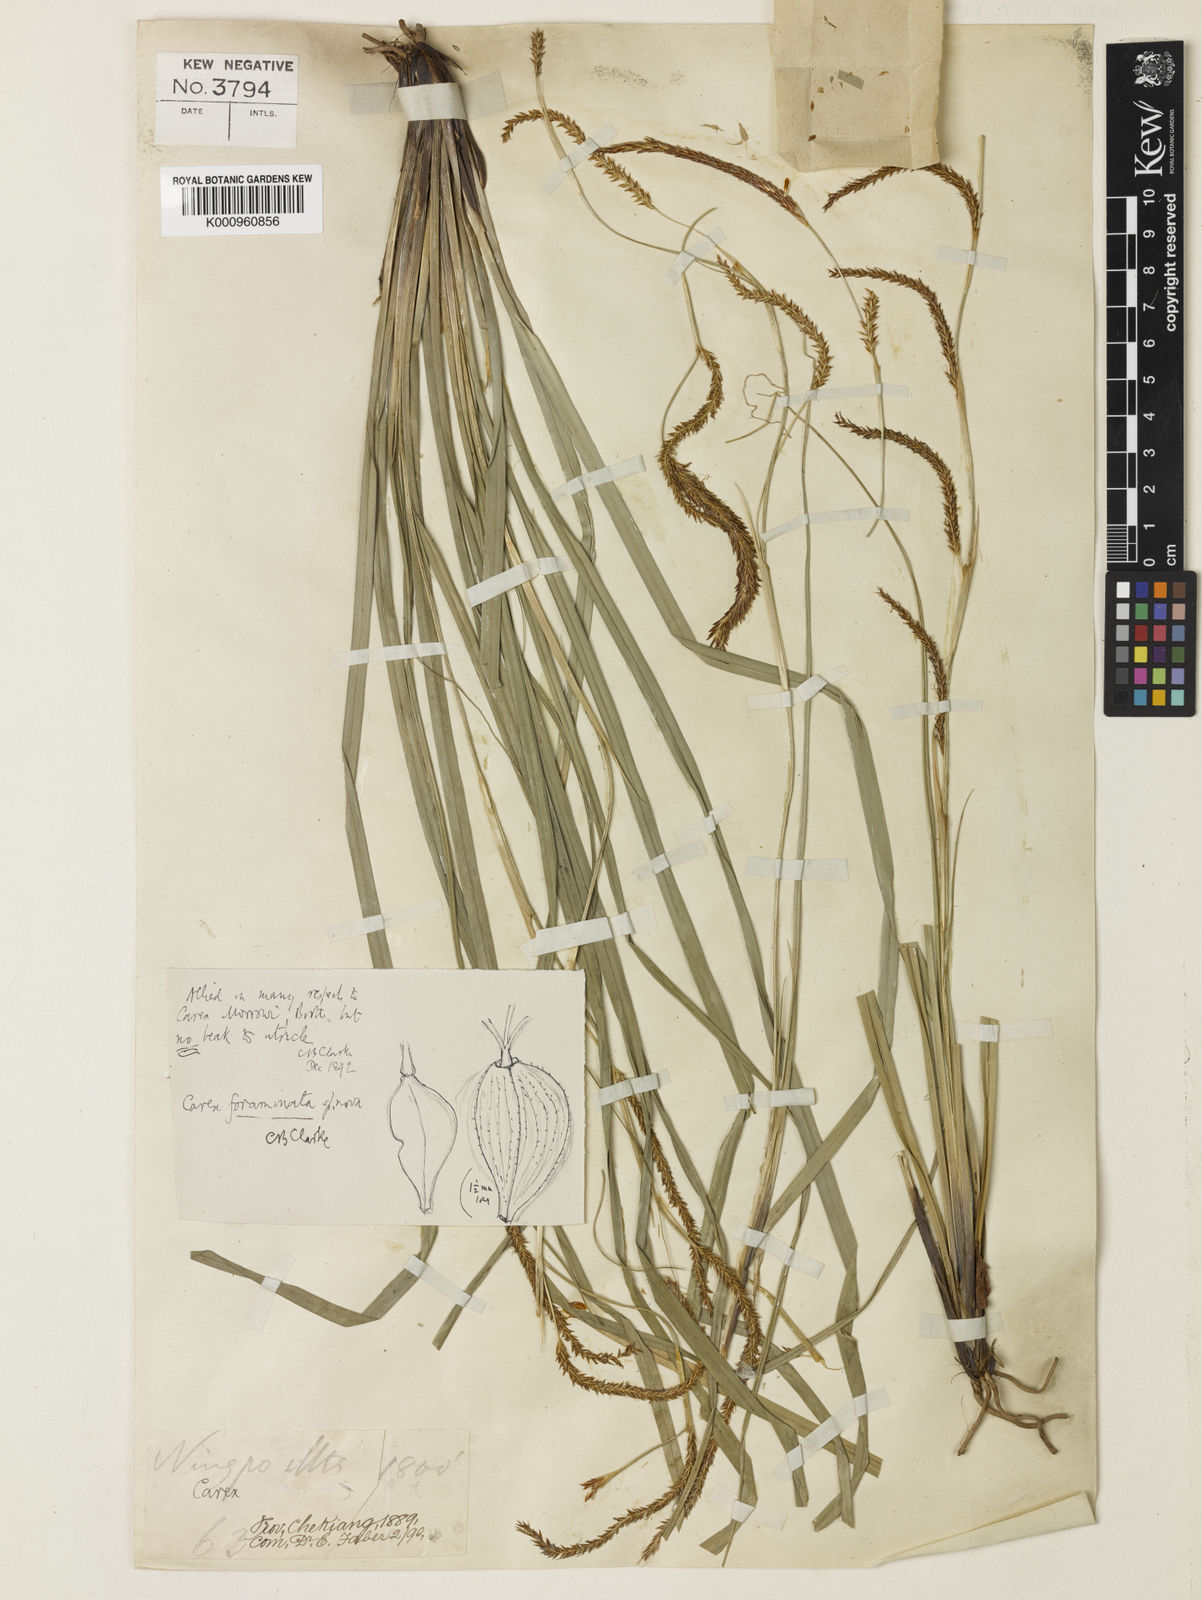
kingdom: Plantae
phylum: Tracheophyta
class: Liliopsida
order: Poales
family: Cyperaceae
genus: Carex
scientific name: Carex foraminata
